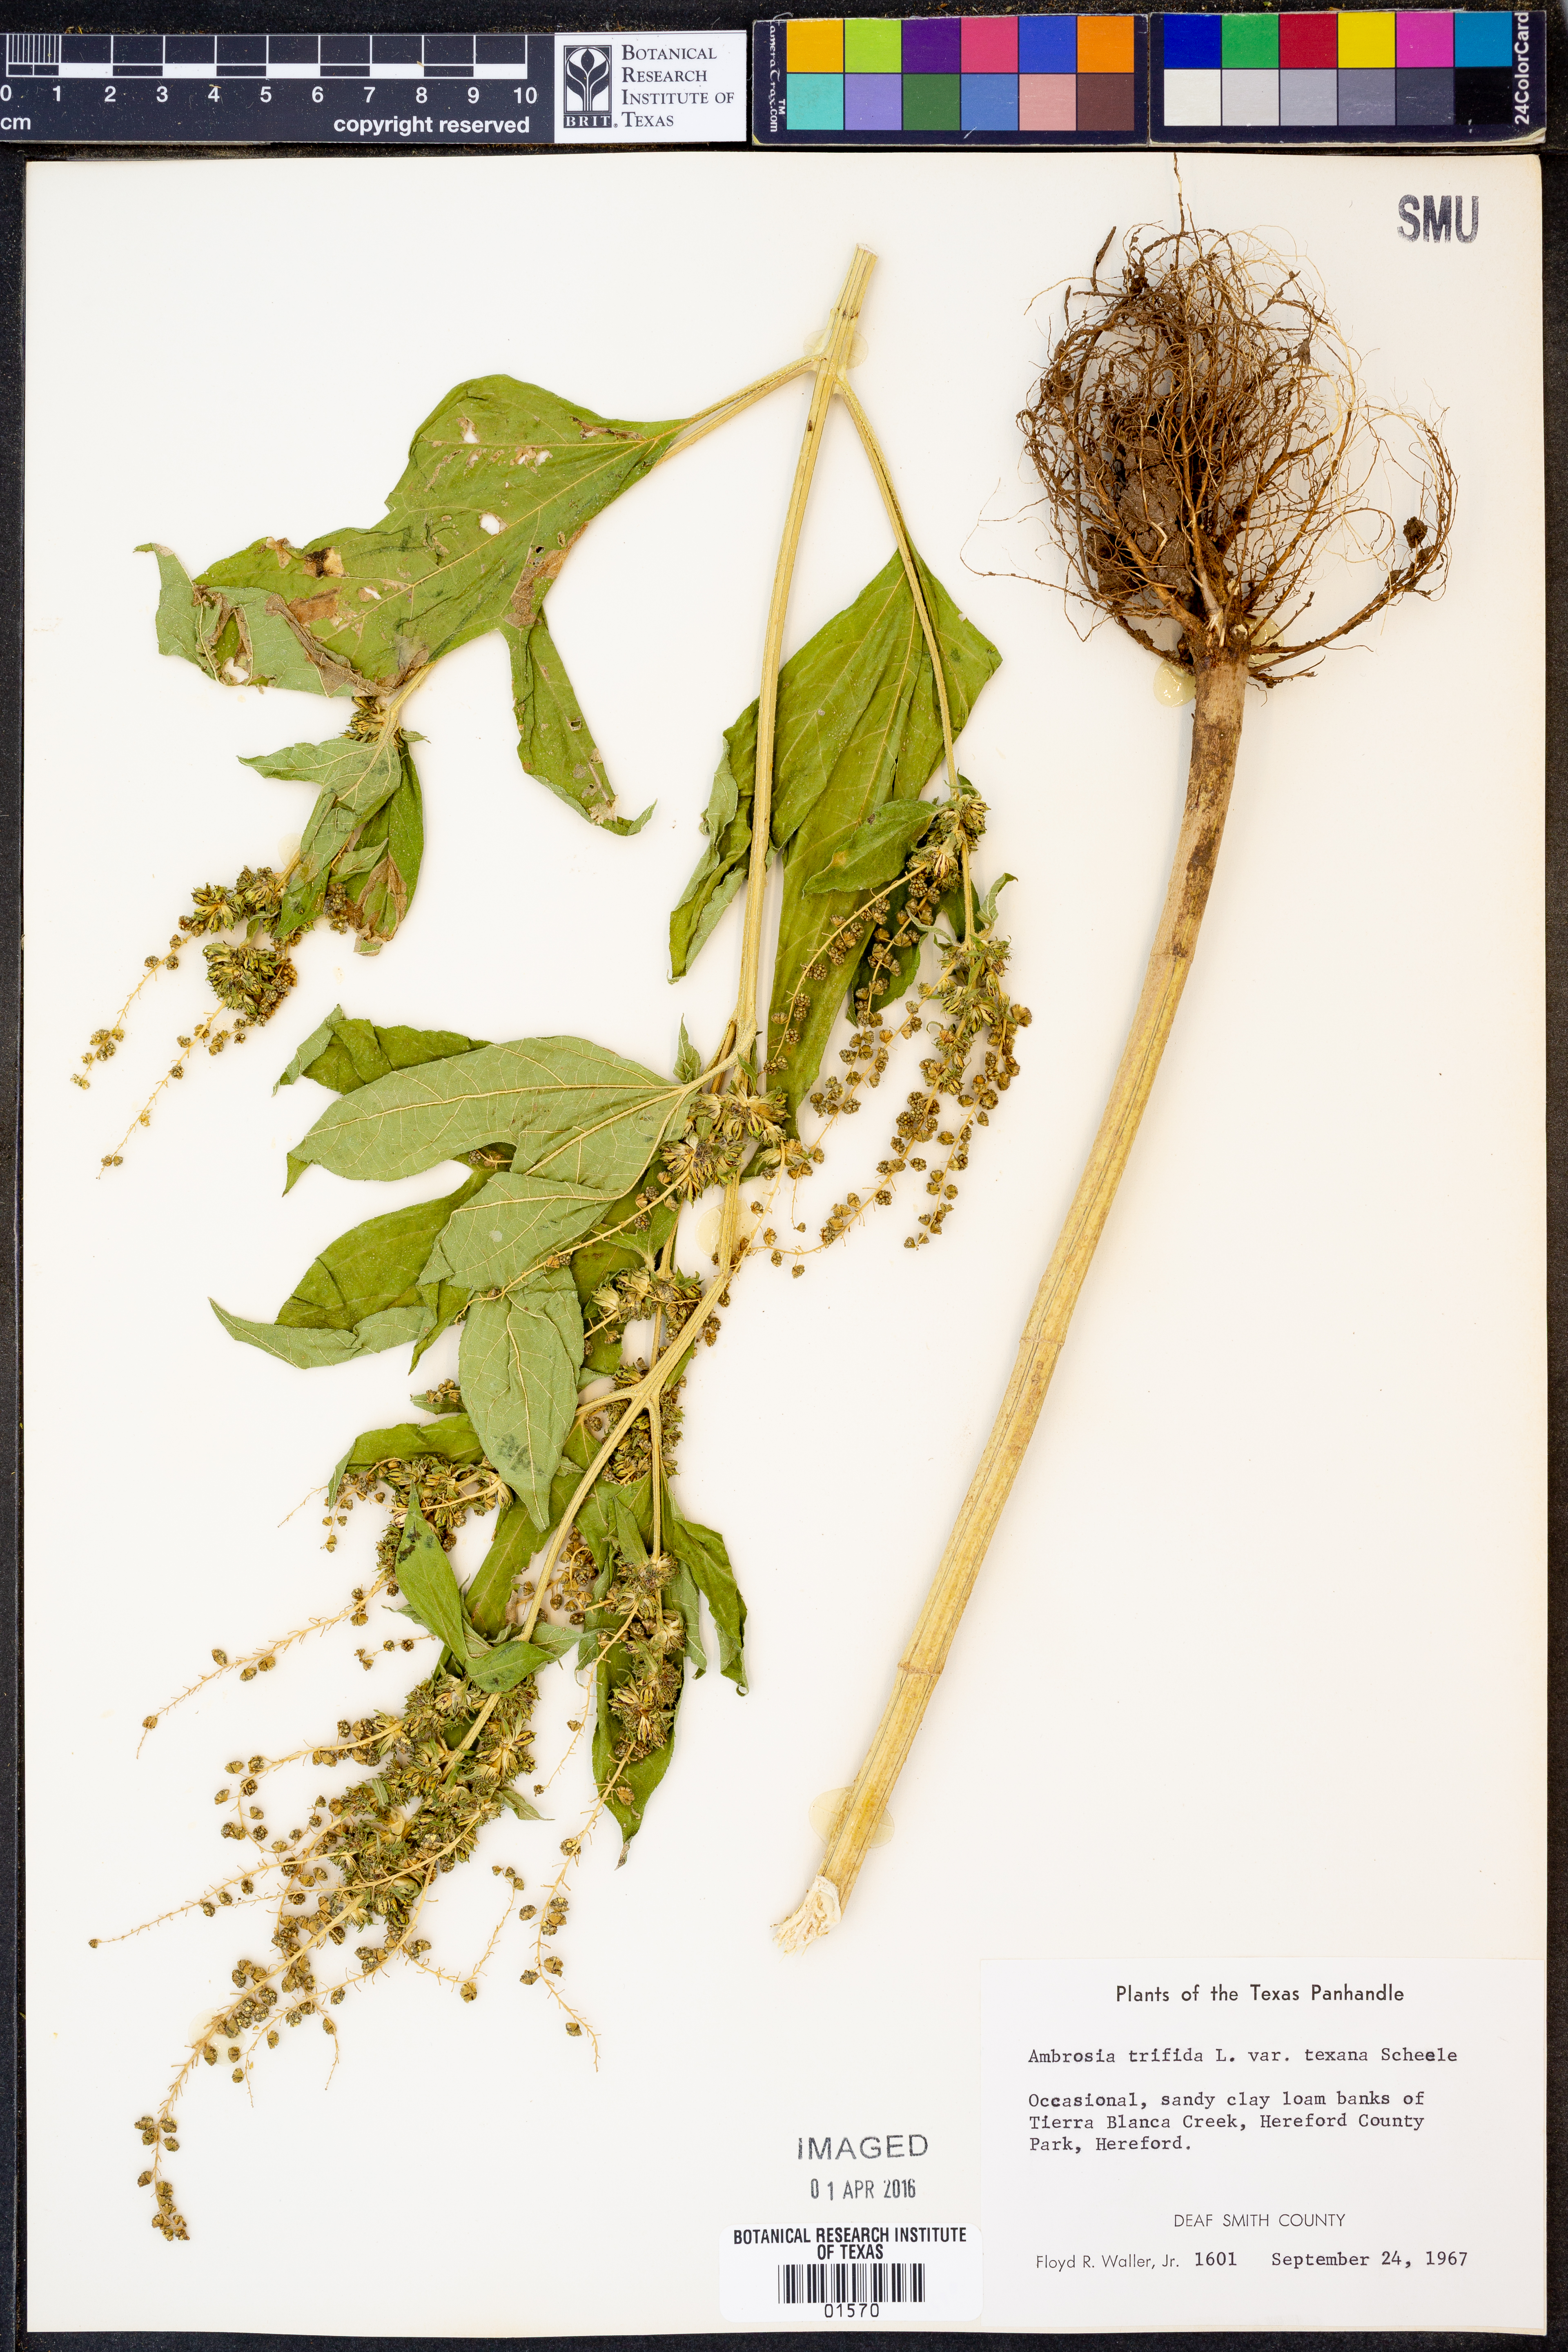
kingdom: Plantae
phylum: Tracheophyta
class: Magnoliopsida
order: Asterales
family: Asteraceae
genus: Ambrosia
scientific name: Ambrosia trifida
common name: Giant ragweed
